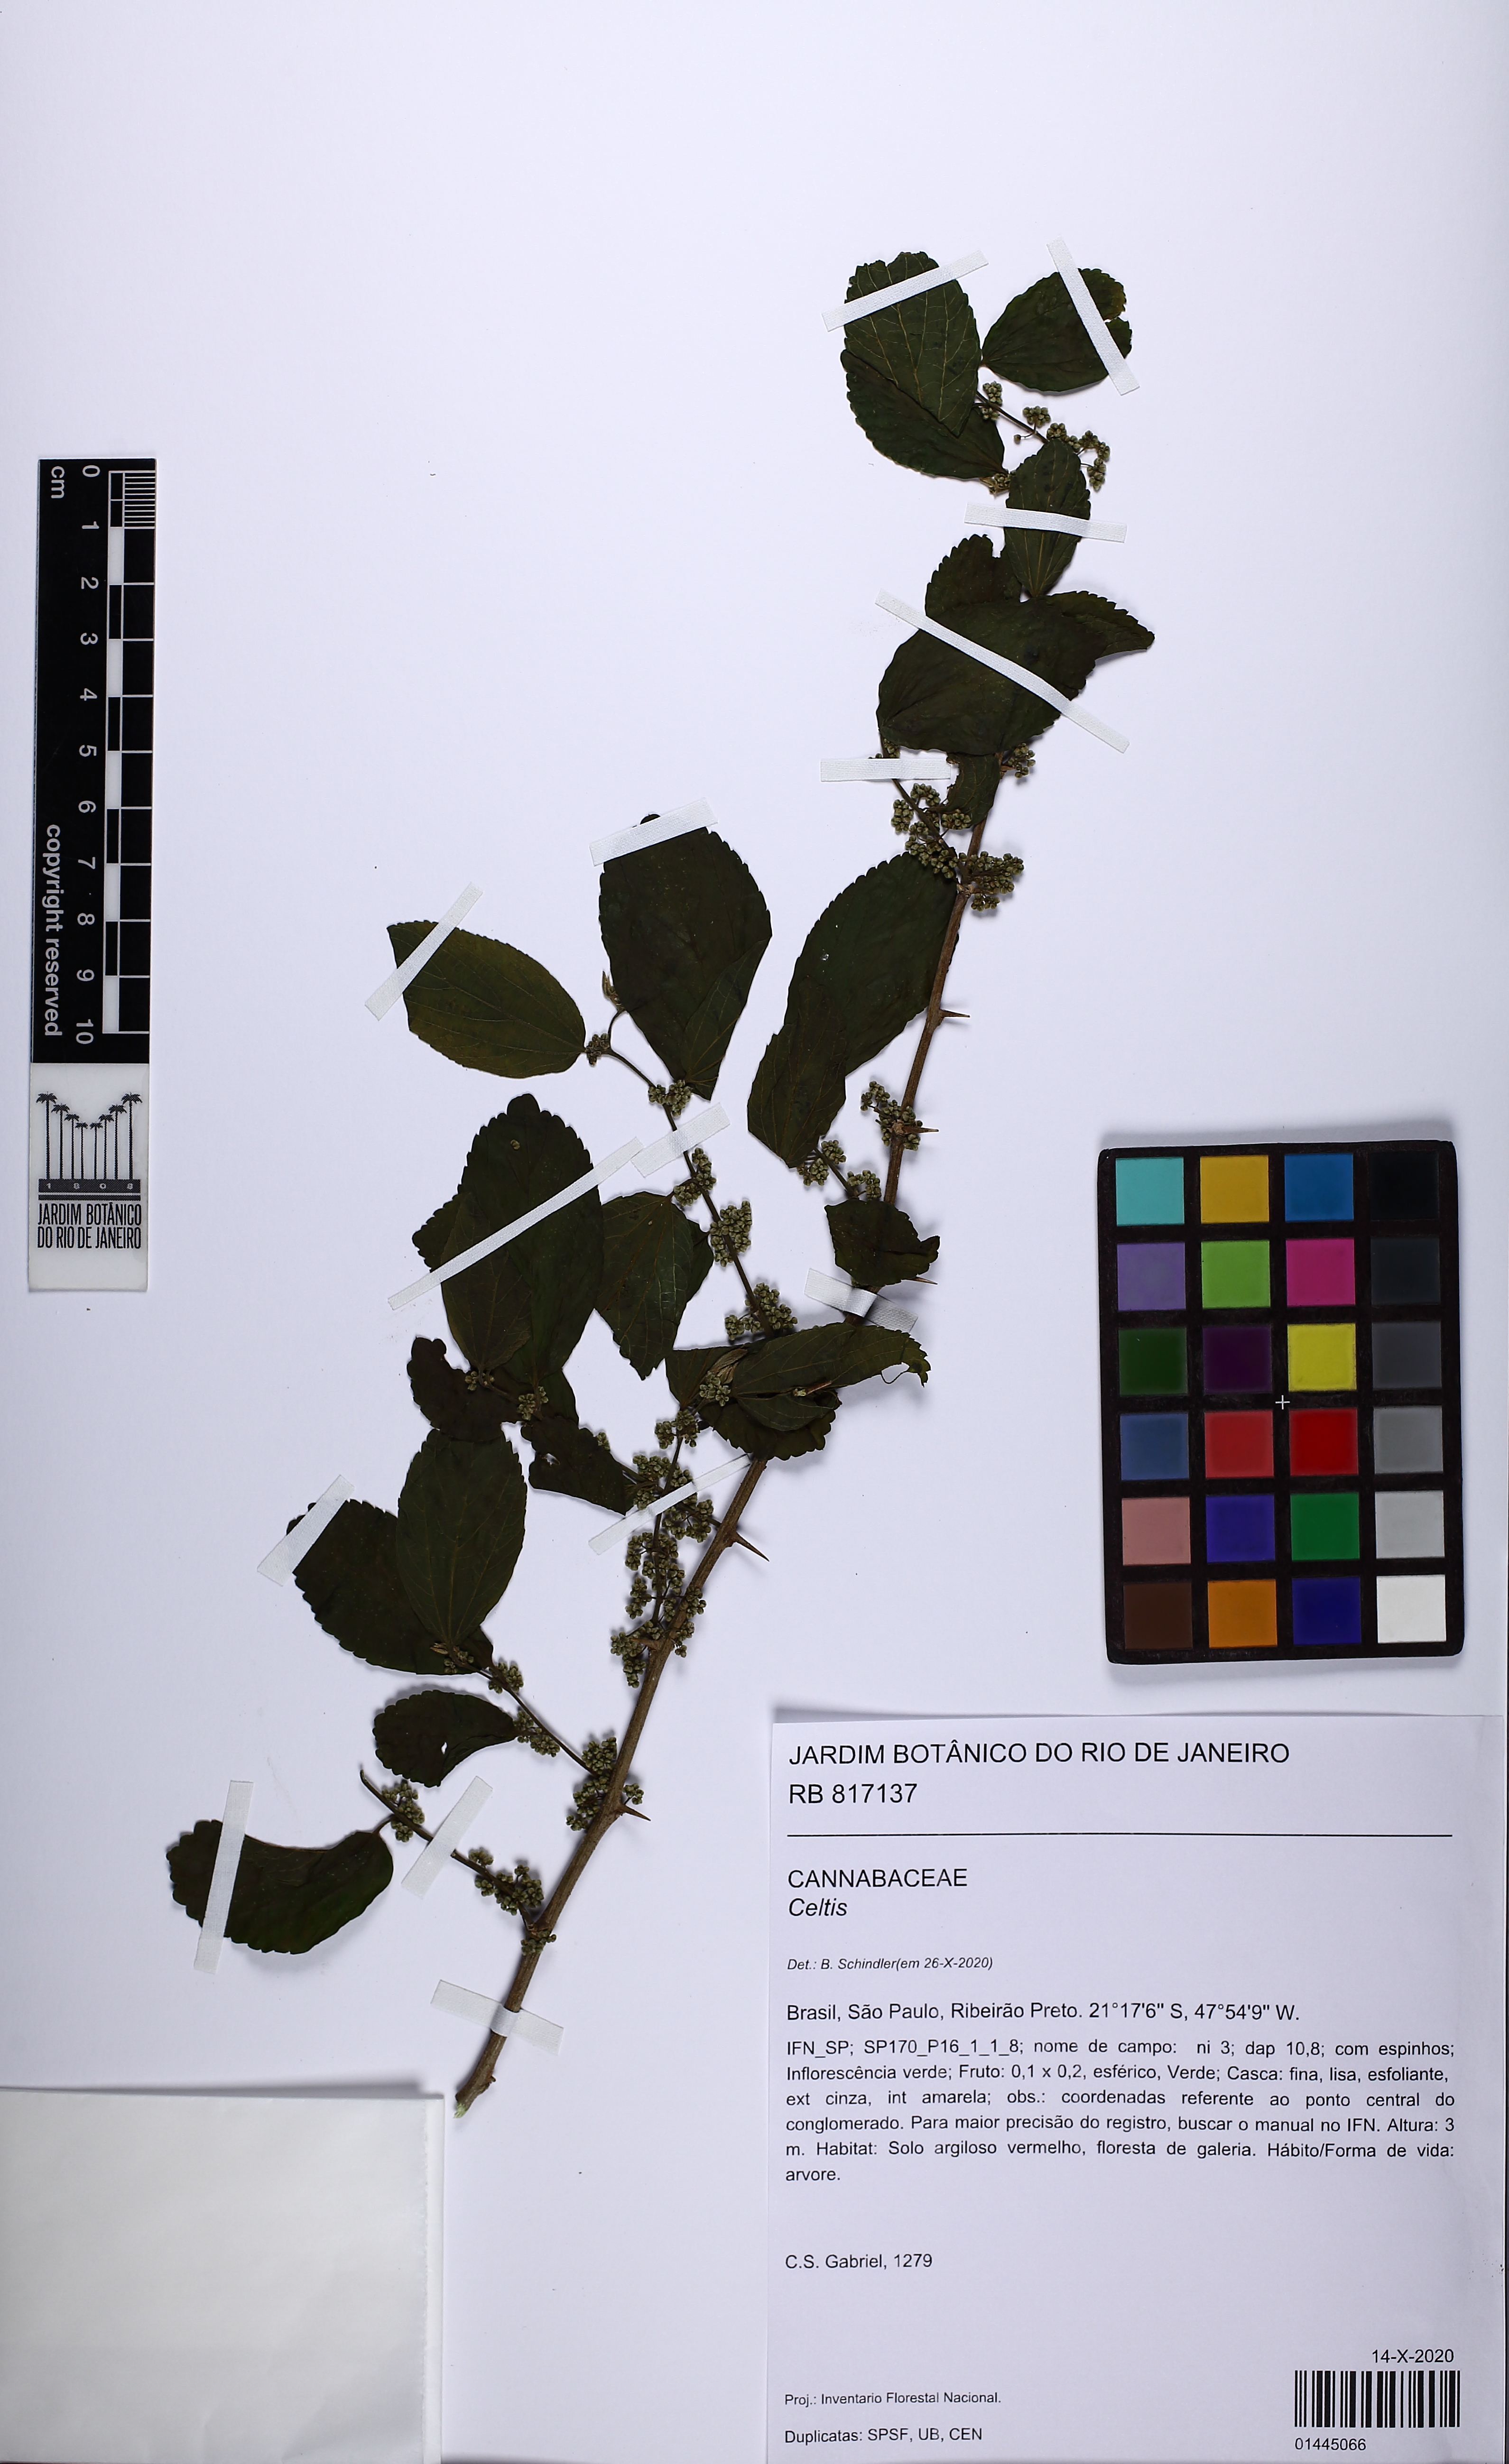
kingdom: Plantae
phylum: Tracheophyta
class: Magnoliopsida
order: Rosales
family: Cannabaceae
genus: Celtis
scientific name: Celtis
